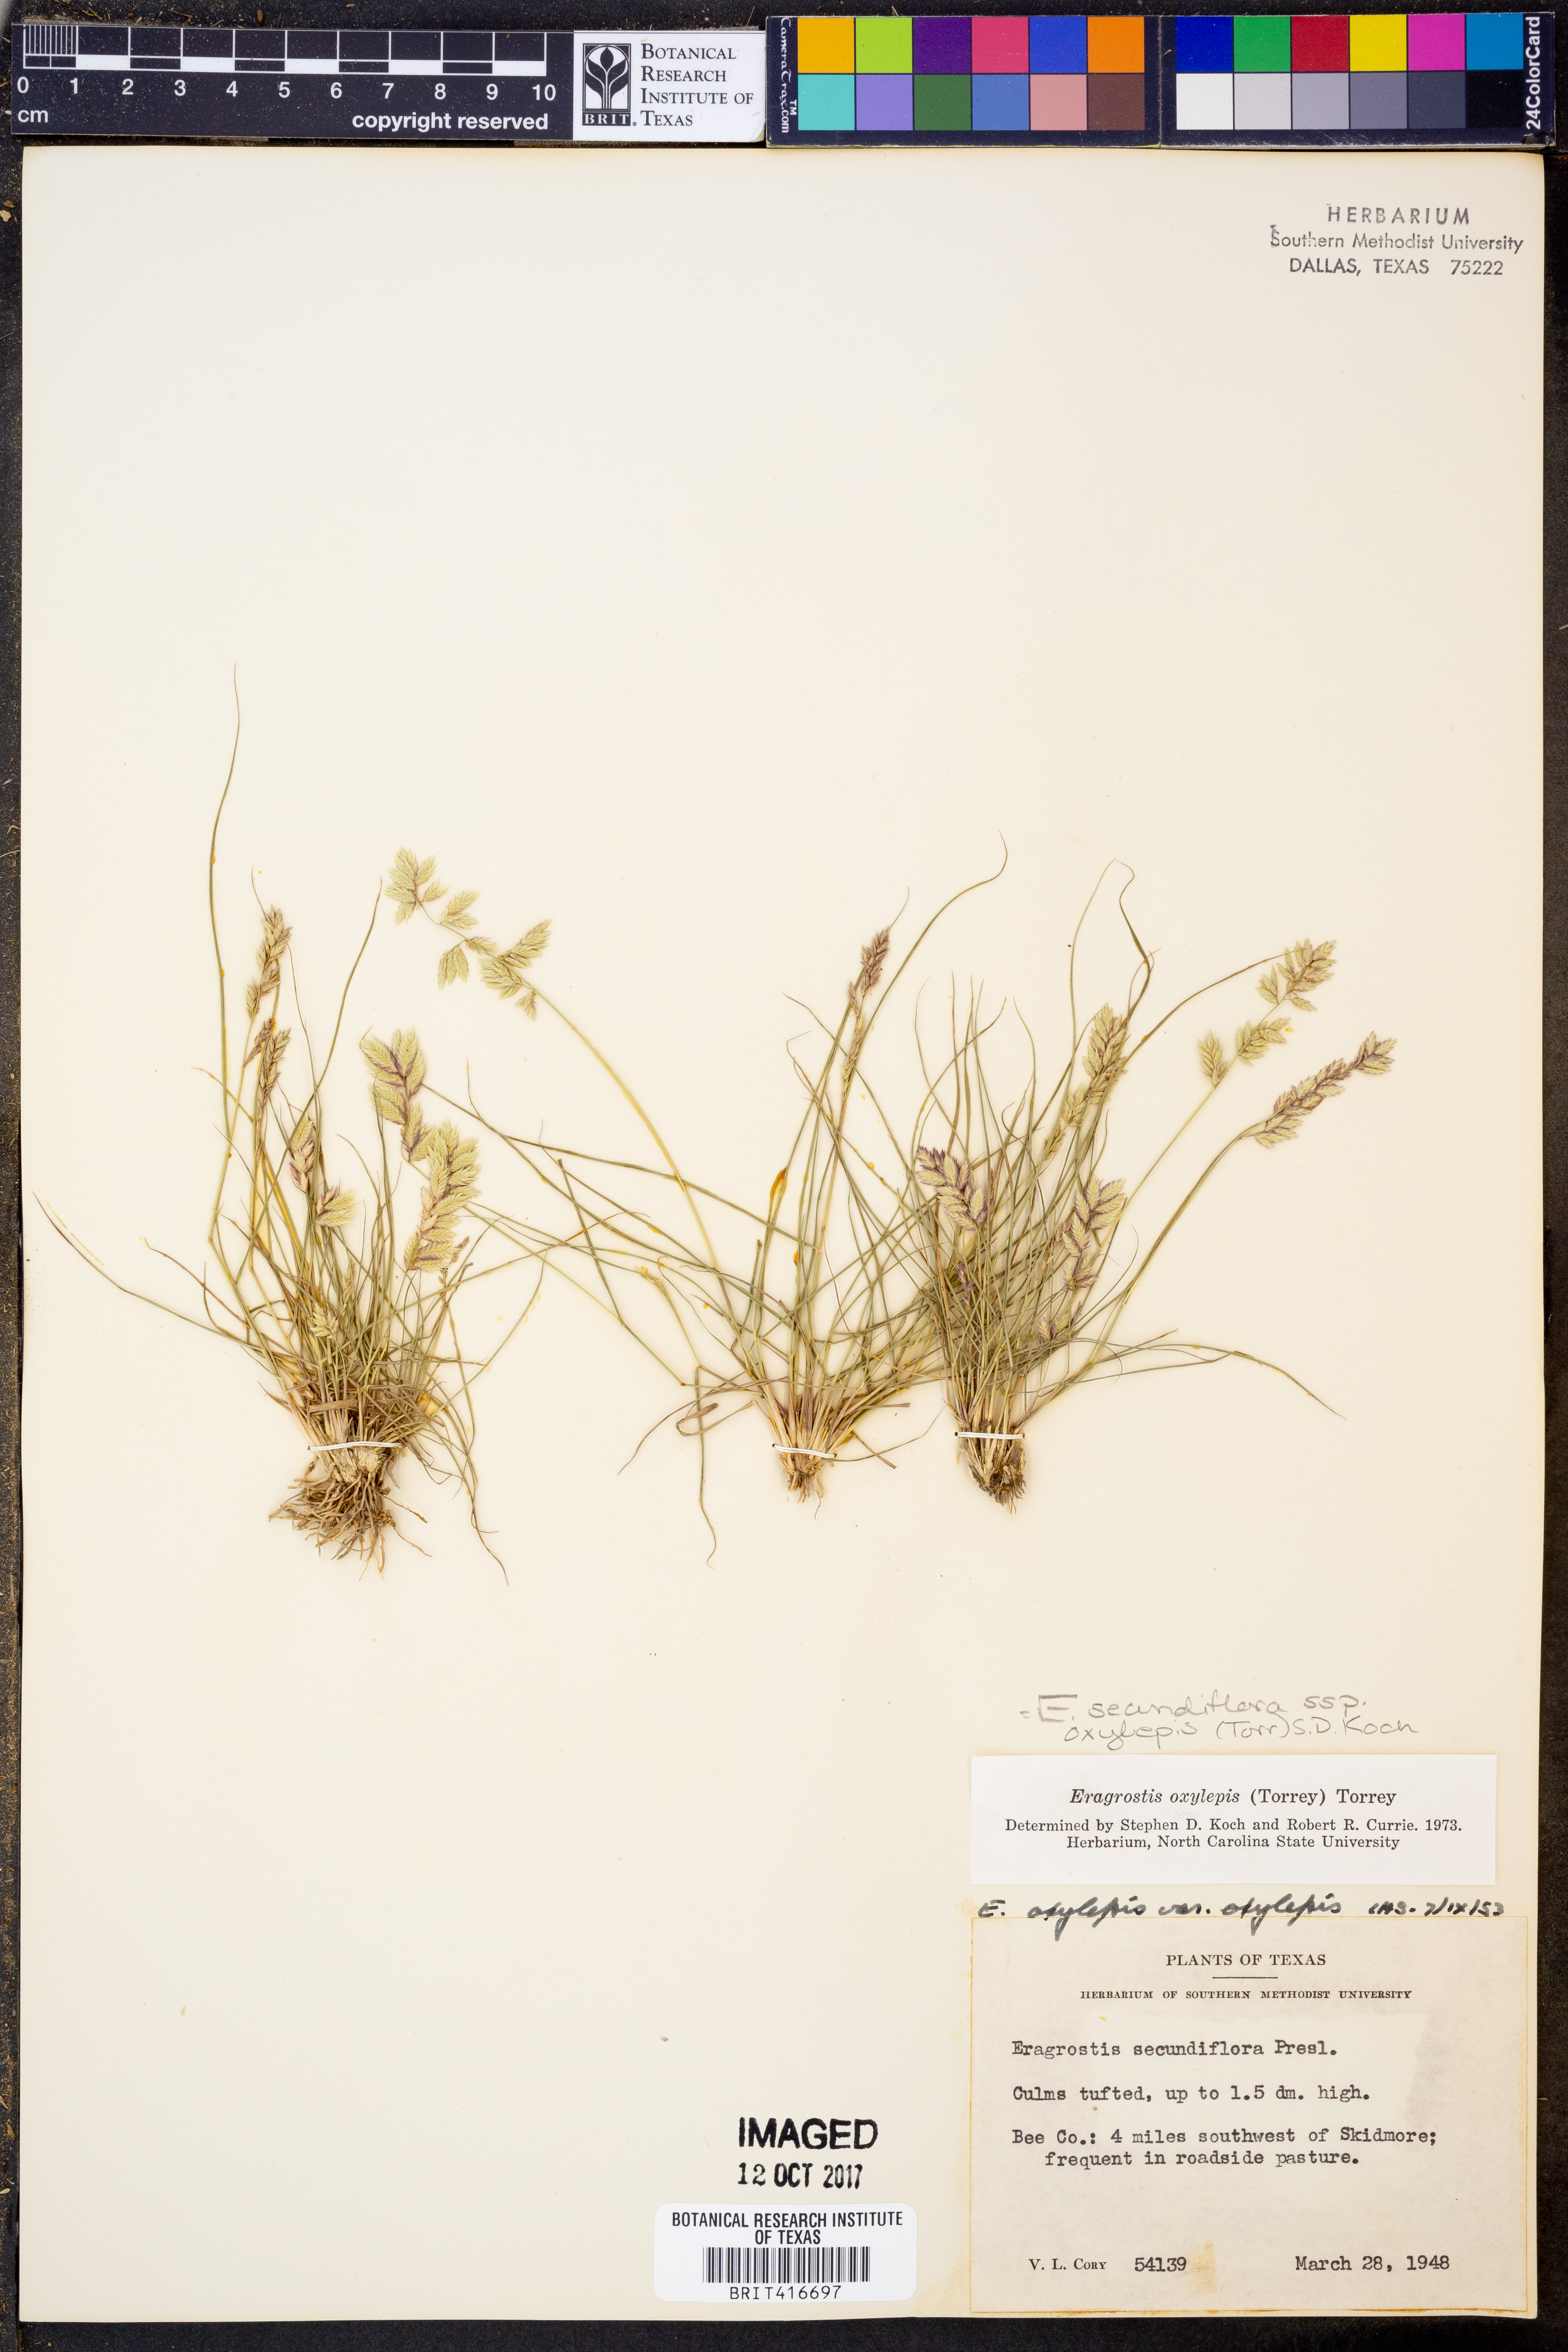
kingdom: Plantae
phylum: Tracheophyta
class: Liliopsida
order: Poales
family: Poaceae
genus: Eragrostis
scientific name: Eragrostis secundiflora
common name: Red love grass
